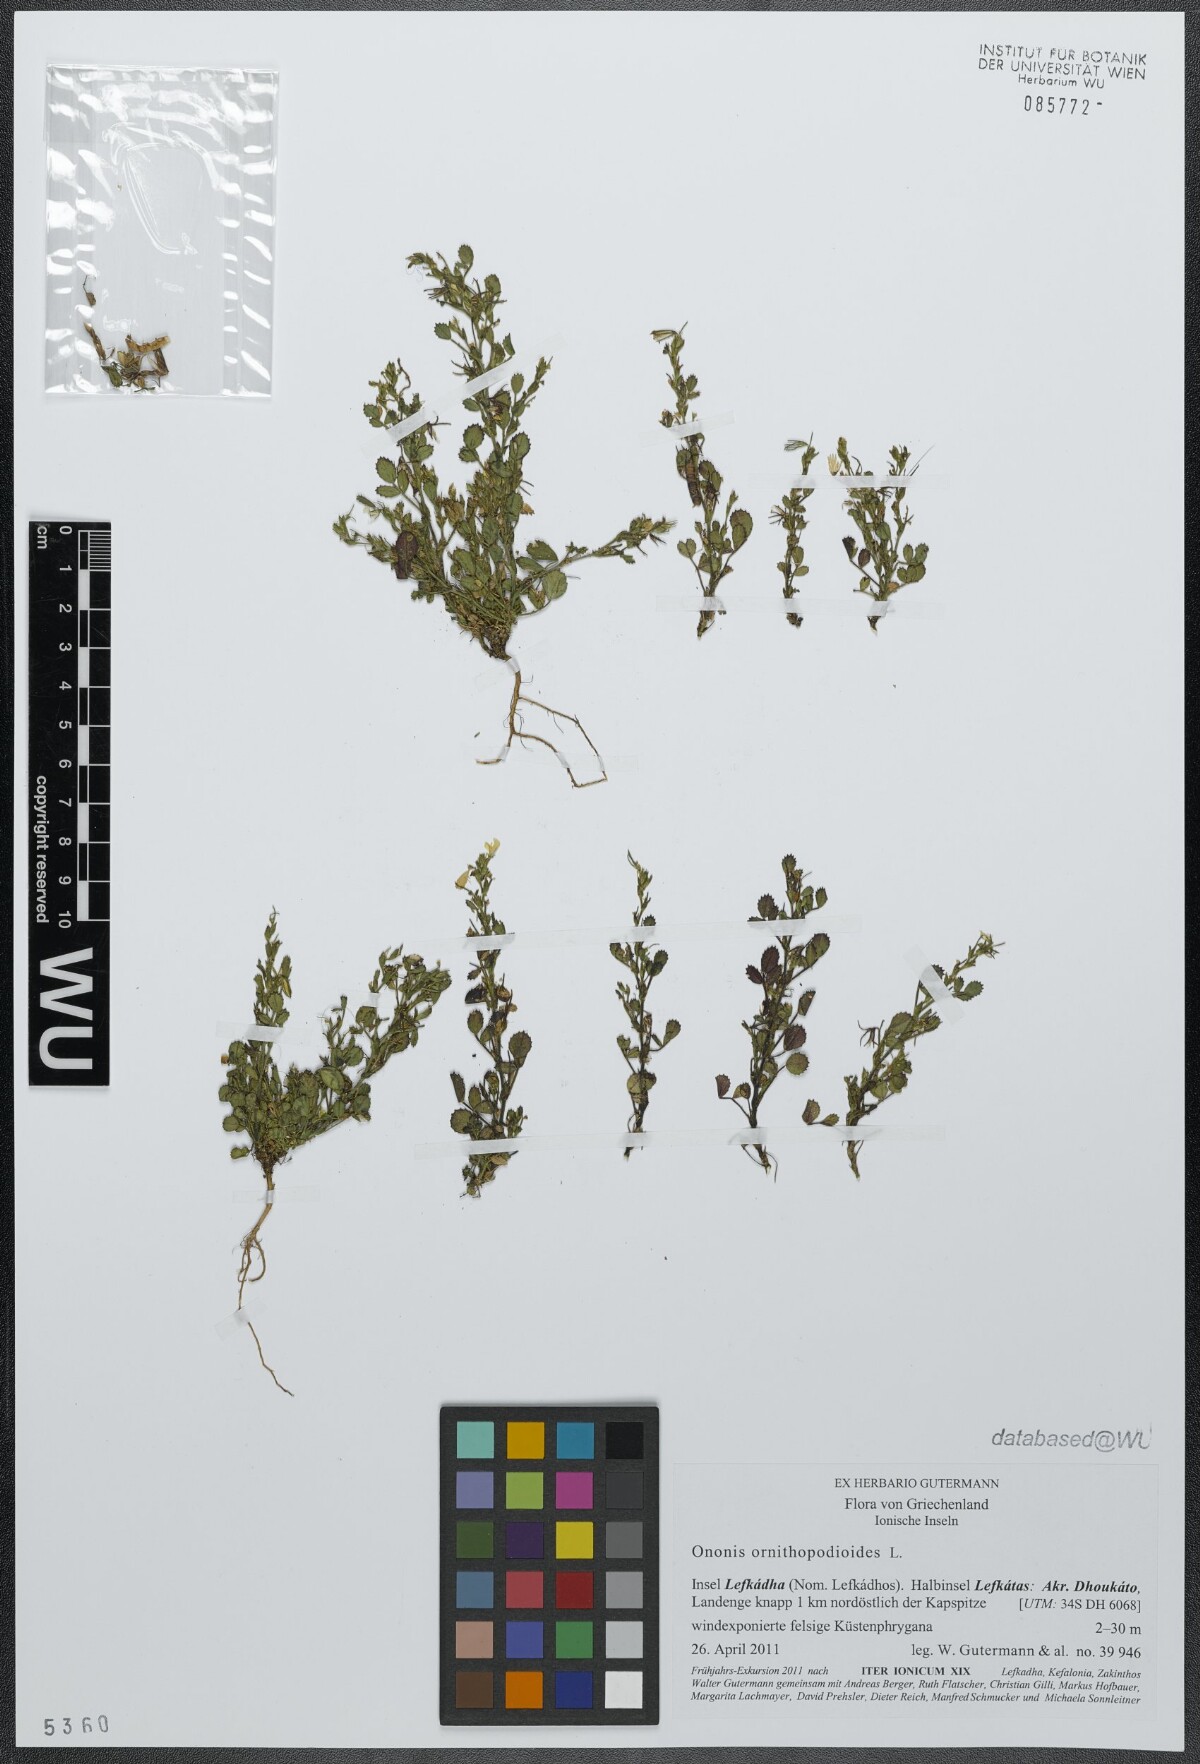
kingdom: Plantae
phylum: Tracheophyta
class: Magnoliopsida
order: Fabales
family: Fabaceae
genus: Ononis
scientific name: Ononis ornithopodioides
